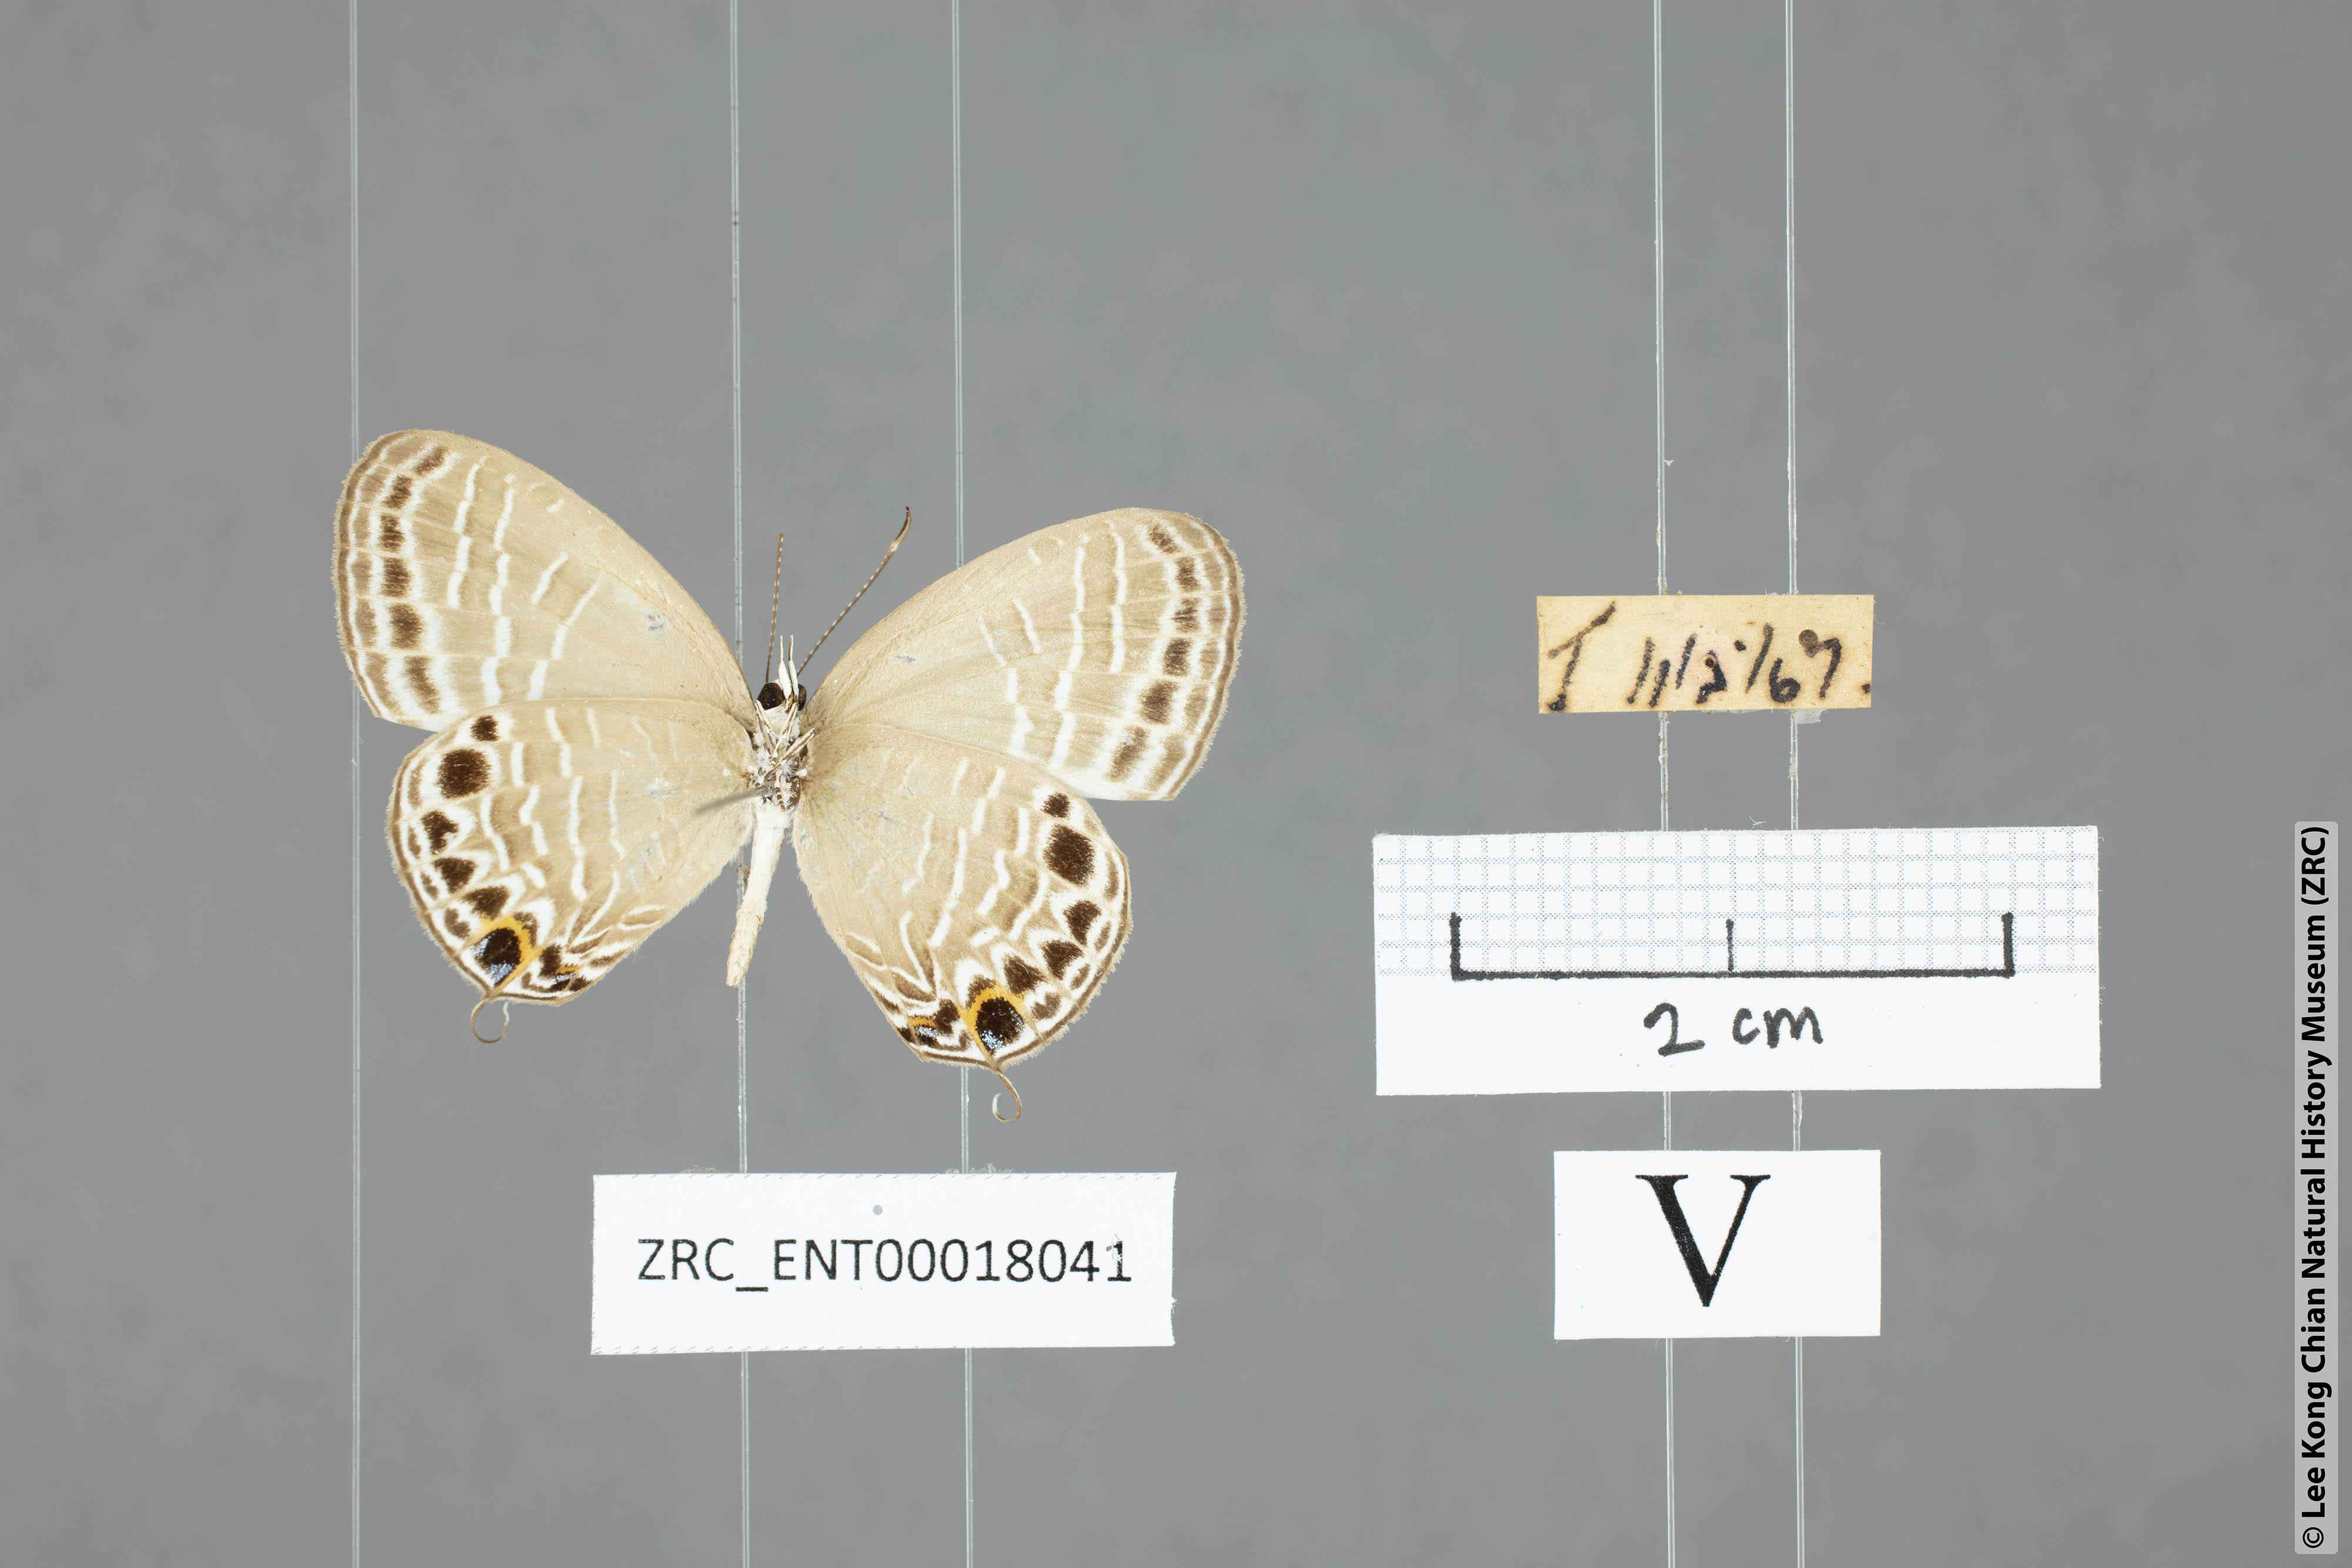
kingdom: Animalia
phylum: Arthropoda
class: Insecta
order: Lepidoptera
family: Lycaenidae
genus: Jamides
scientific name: Jamides aratus
